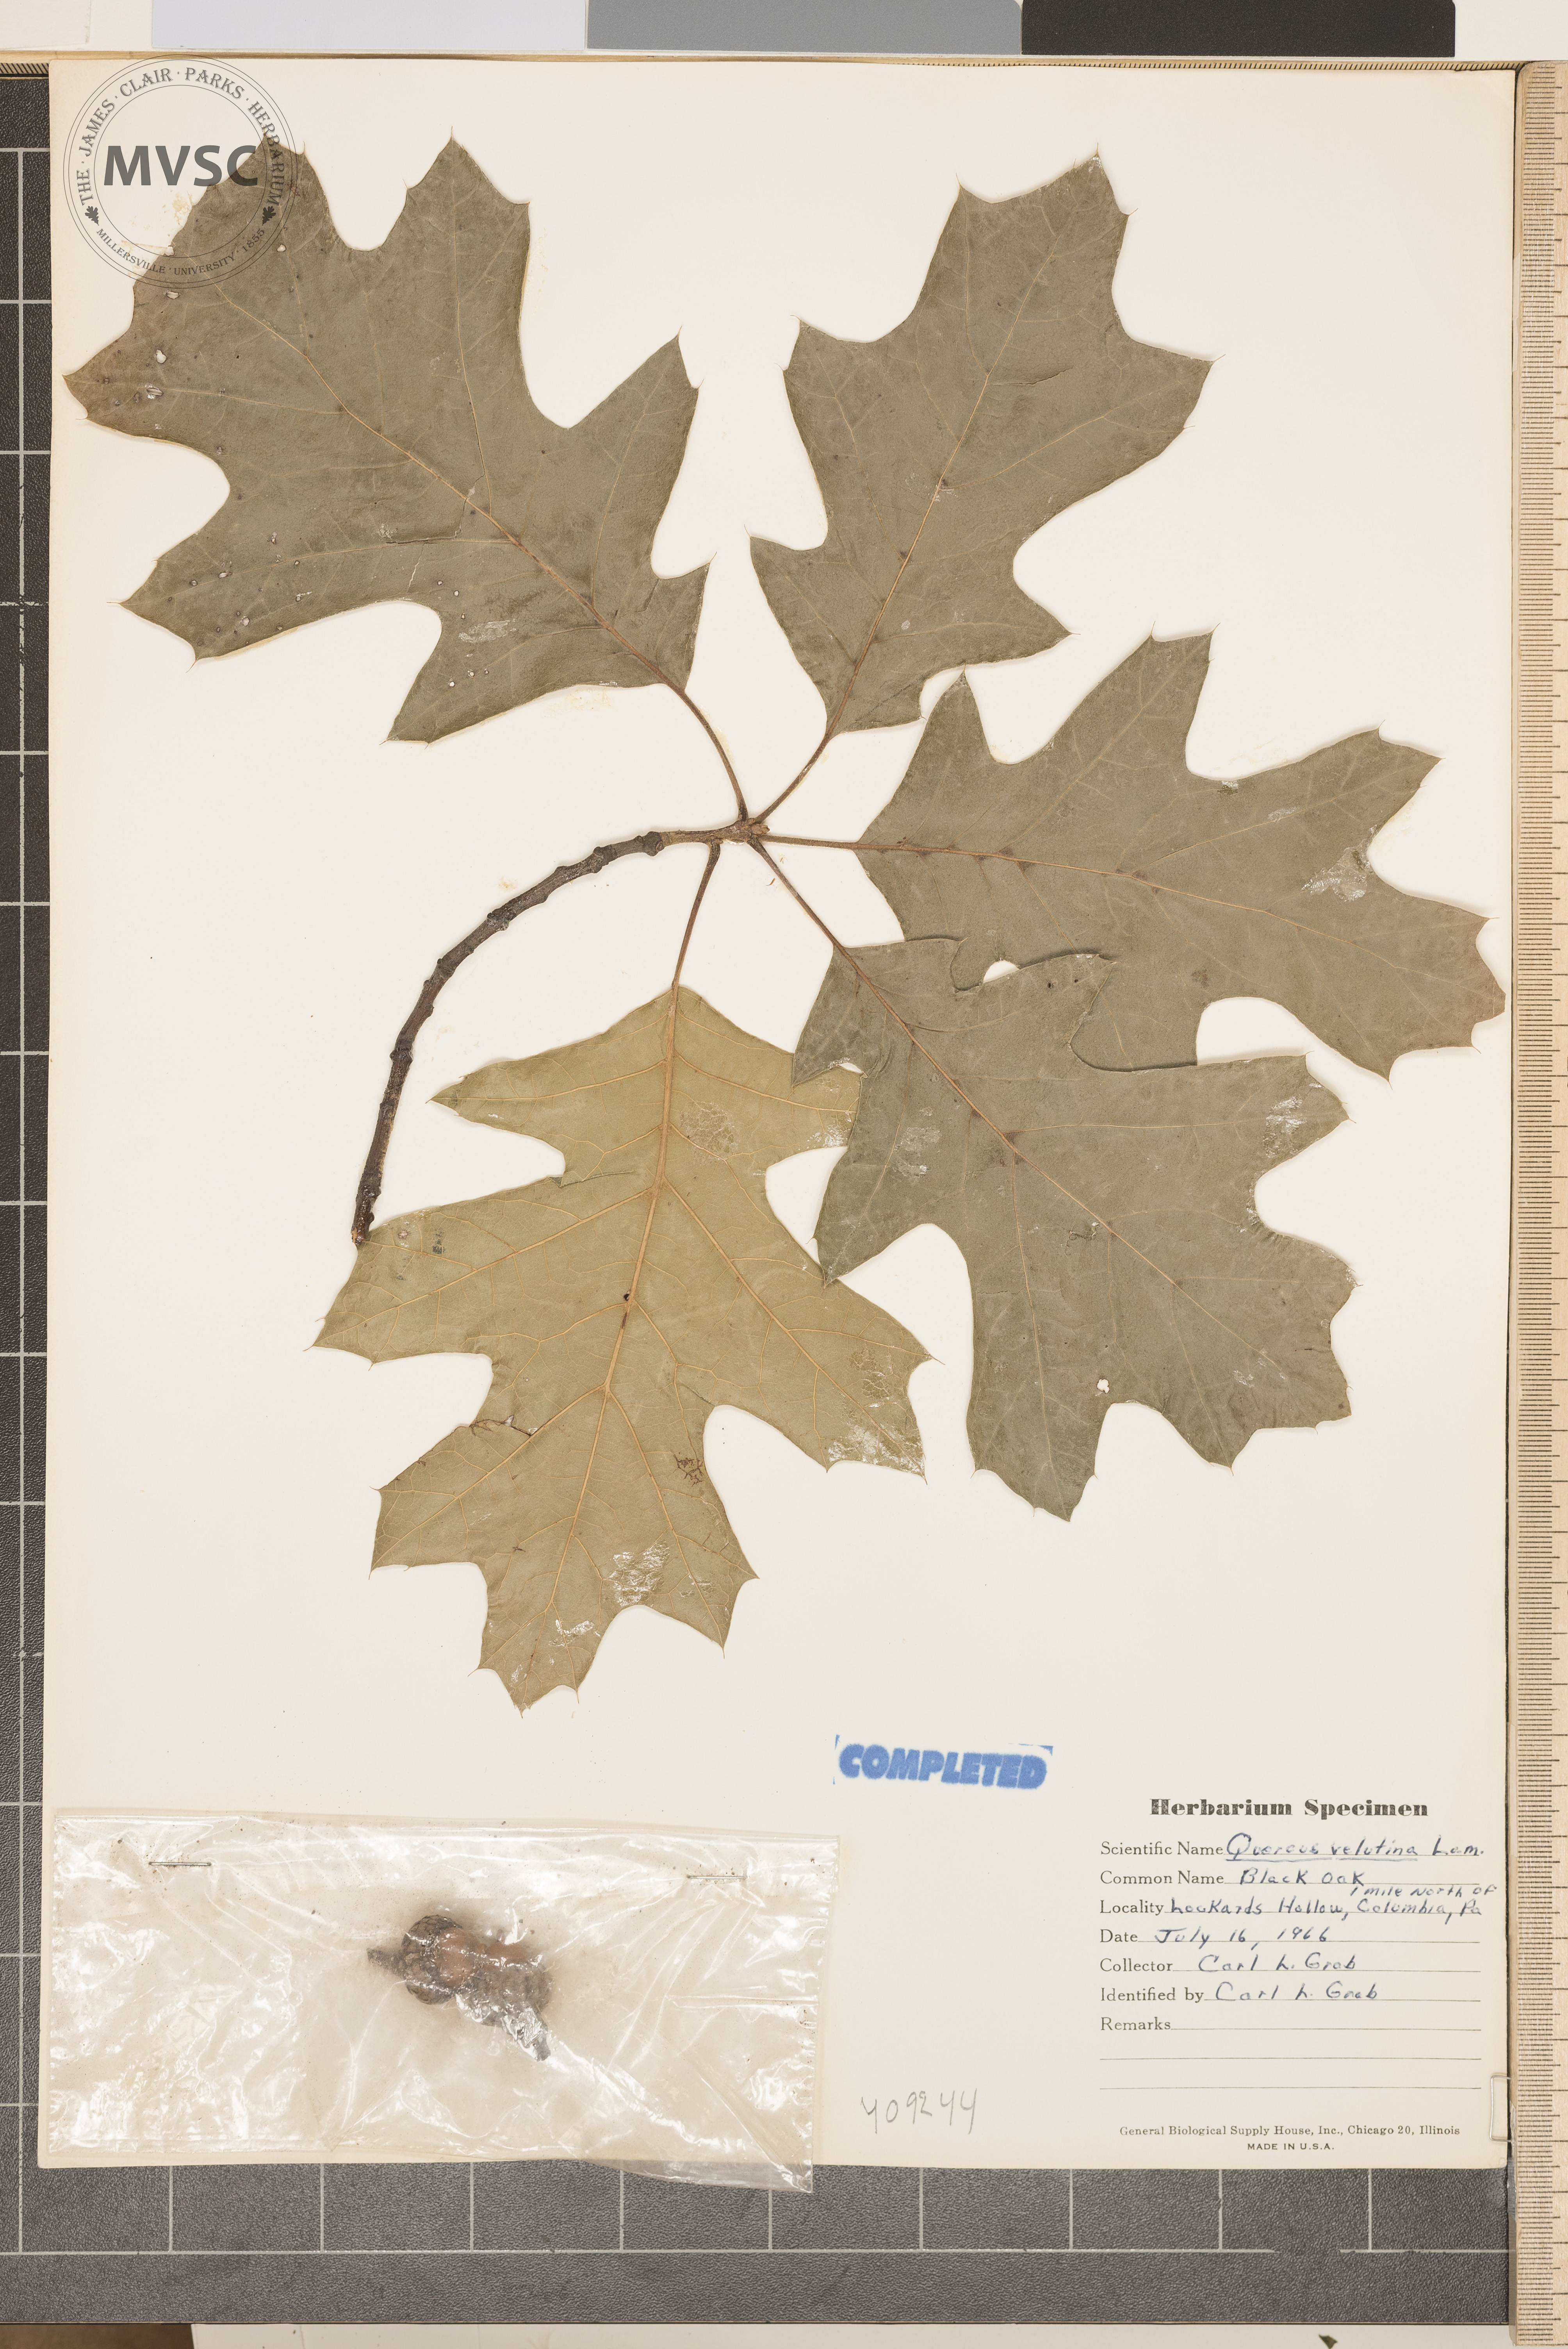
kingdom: Plantae
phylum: Tracheophyta
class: Magnoliopsida
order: Fagales
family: Fagaceae
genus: Quercus
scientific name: Quercus velutina
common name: Black oak
